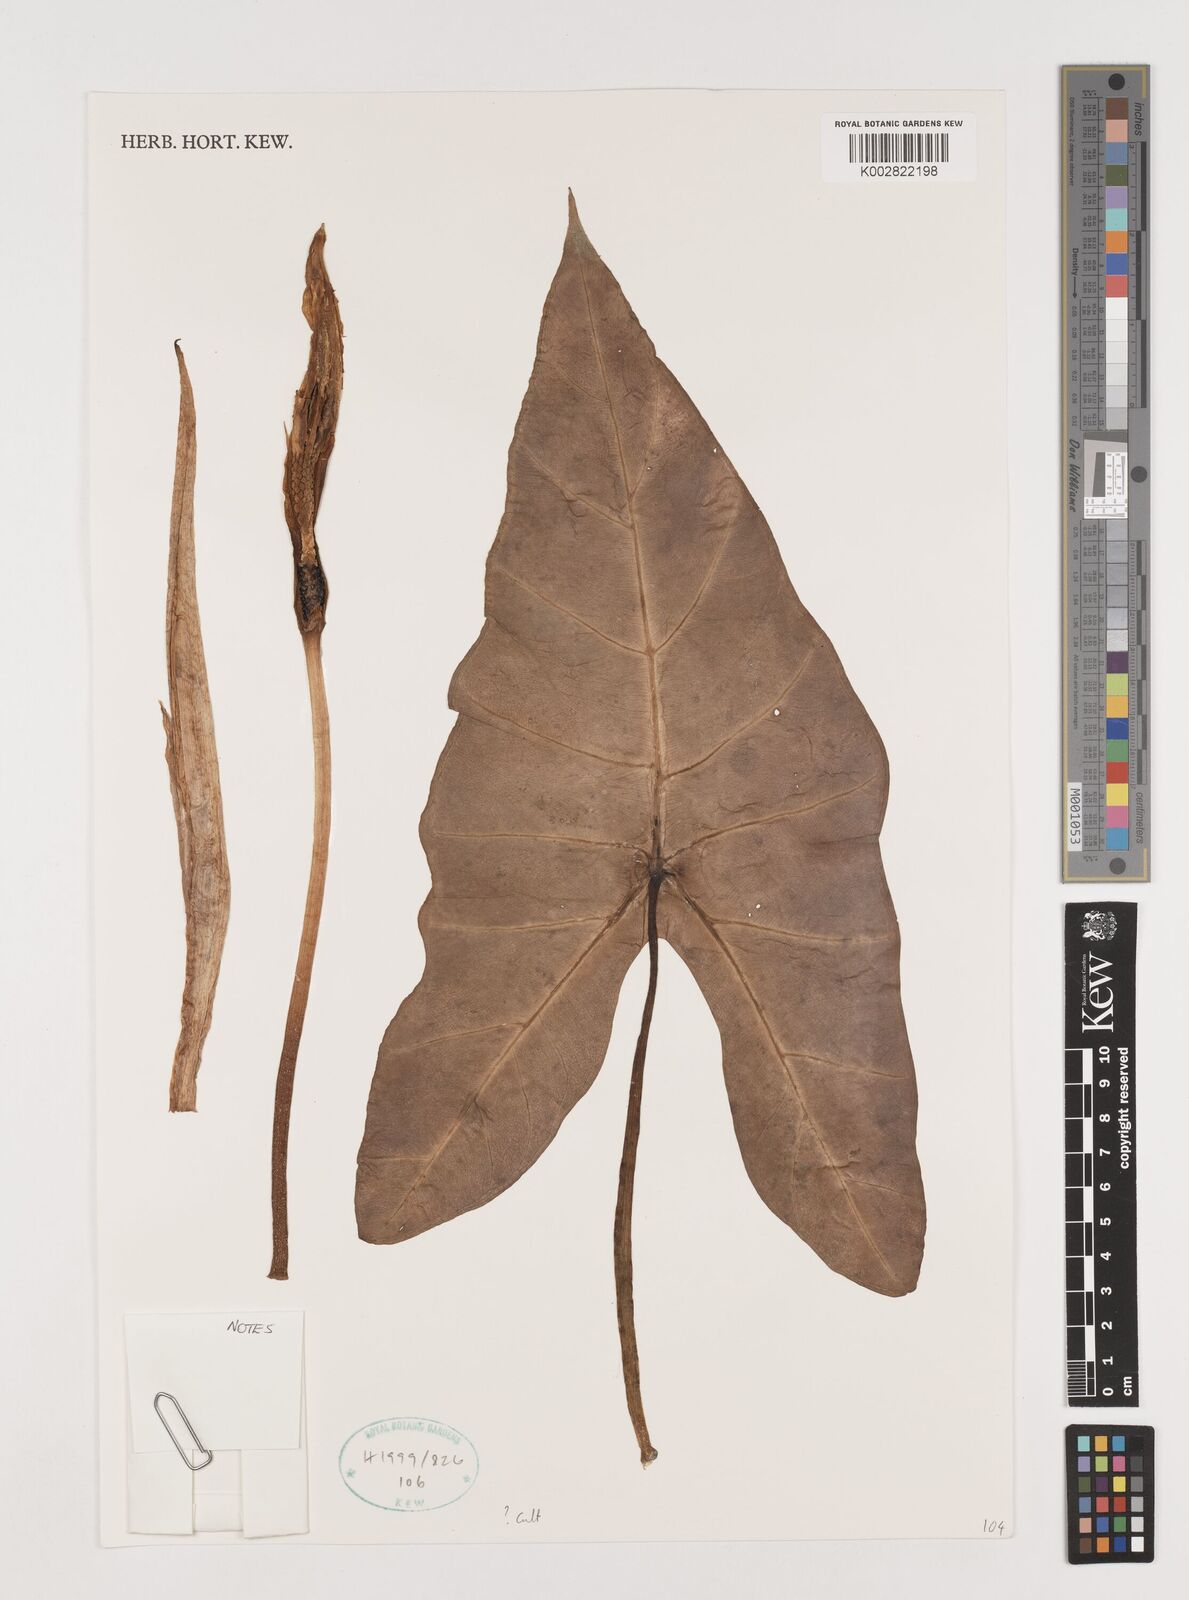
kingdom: Plantae
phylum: Tracheophyta
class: Liliopsida
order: Alismatales
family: Araceae
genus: Alocasia
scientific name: Alocasia macrorrhizos
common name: Giant taro
